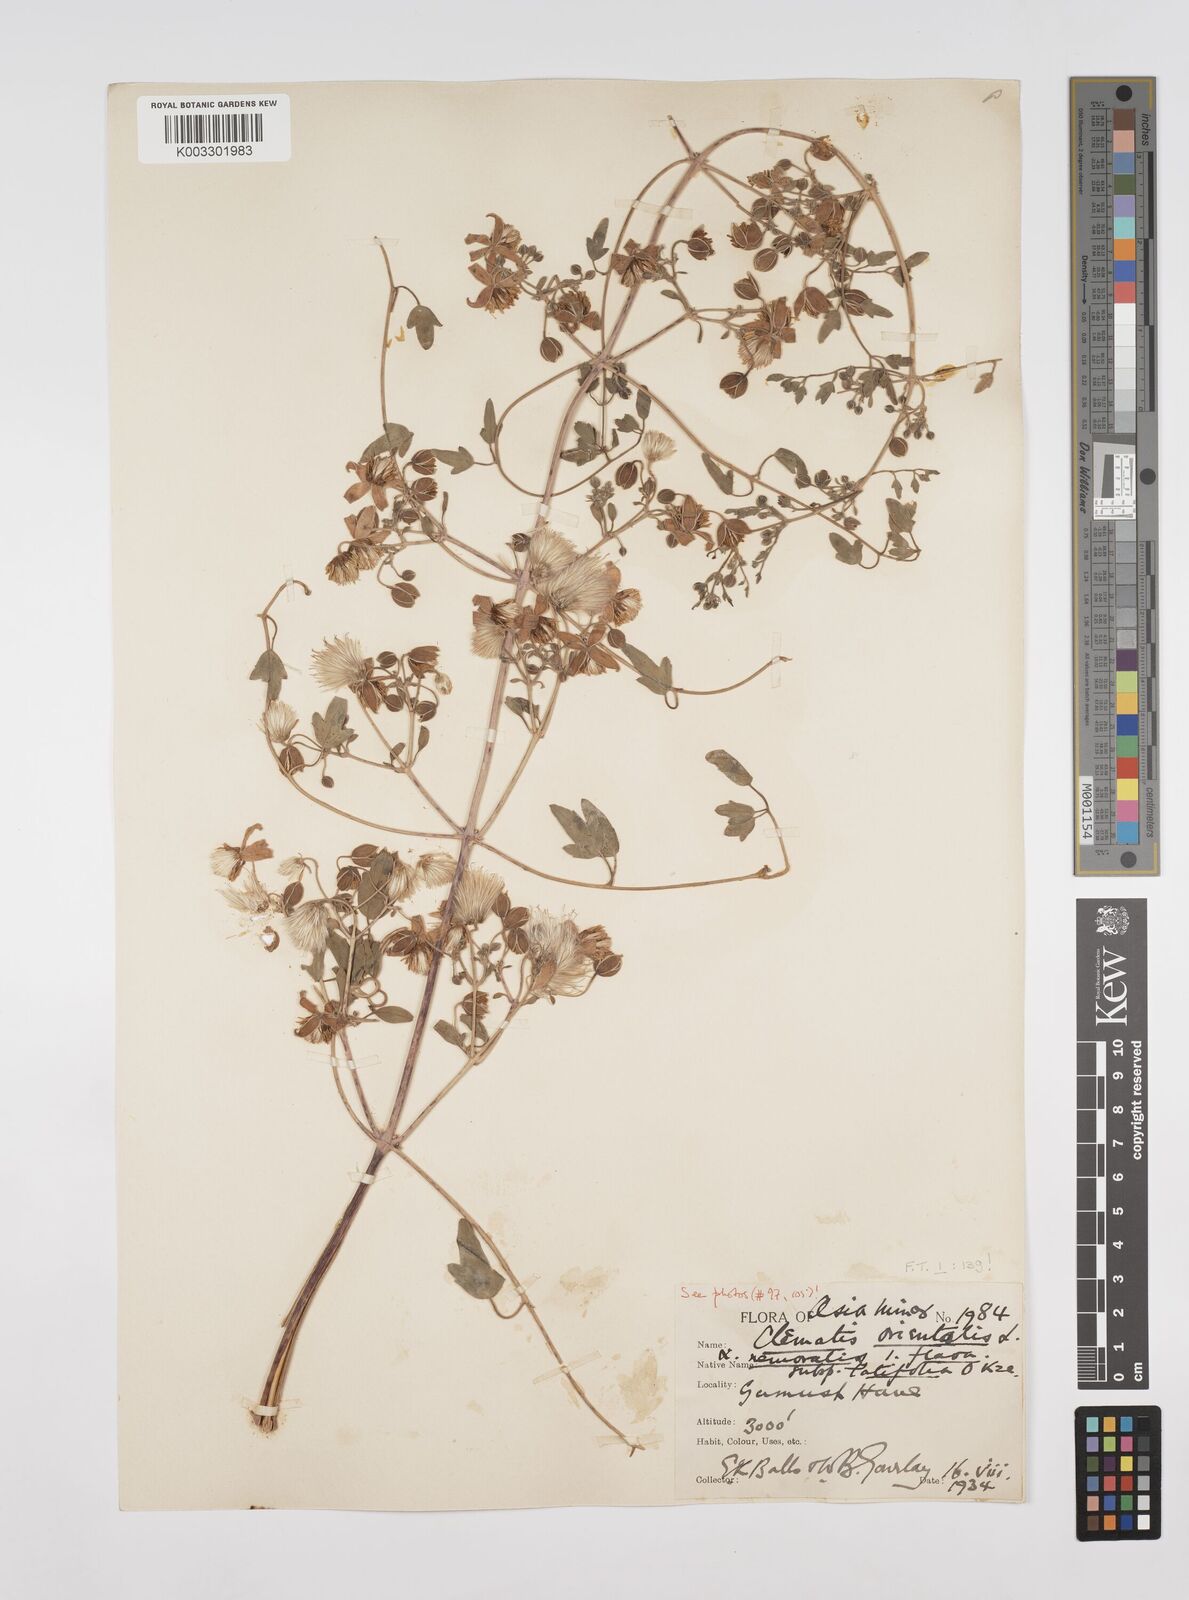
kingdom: Plantae
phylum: Tracheophyta
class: Magnoliopsida
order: Ranunculales
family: Ranunculaceae
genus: Clematis
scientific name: Clematis orientalis
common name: Oriental virgin's-bower
